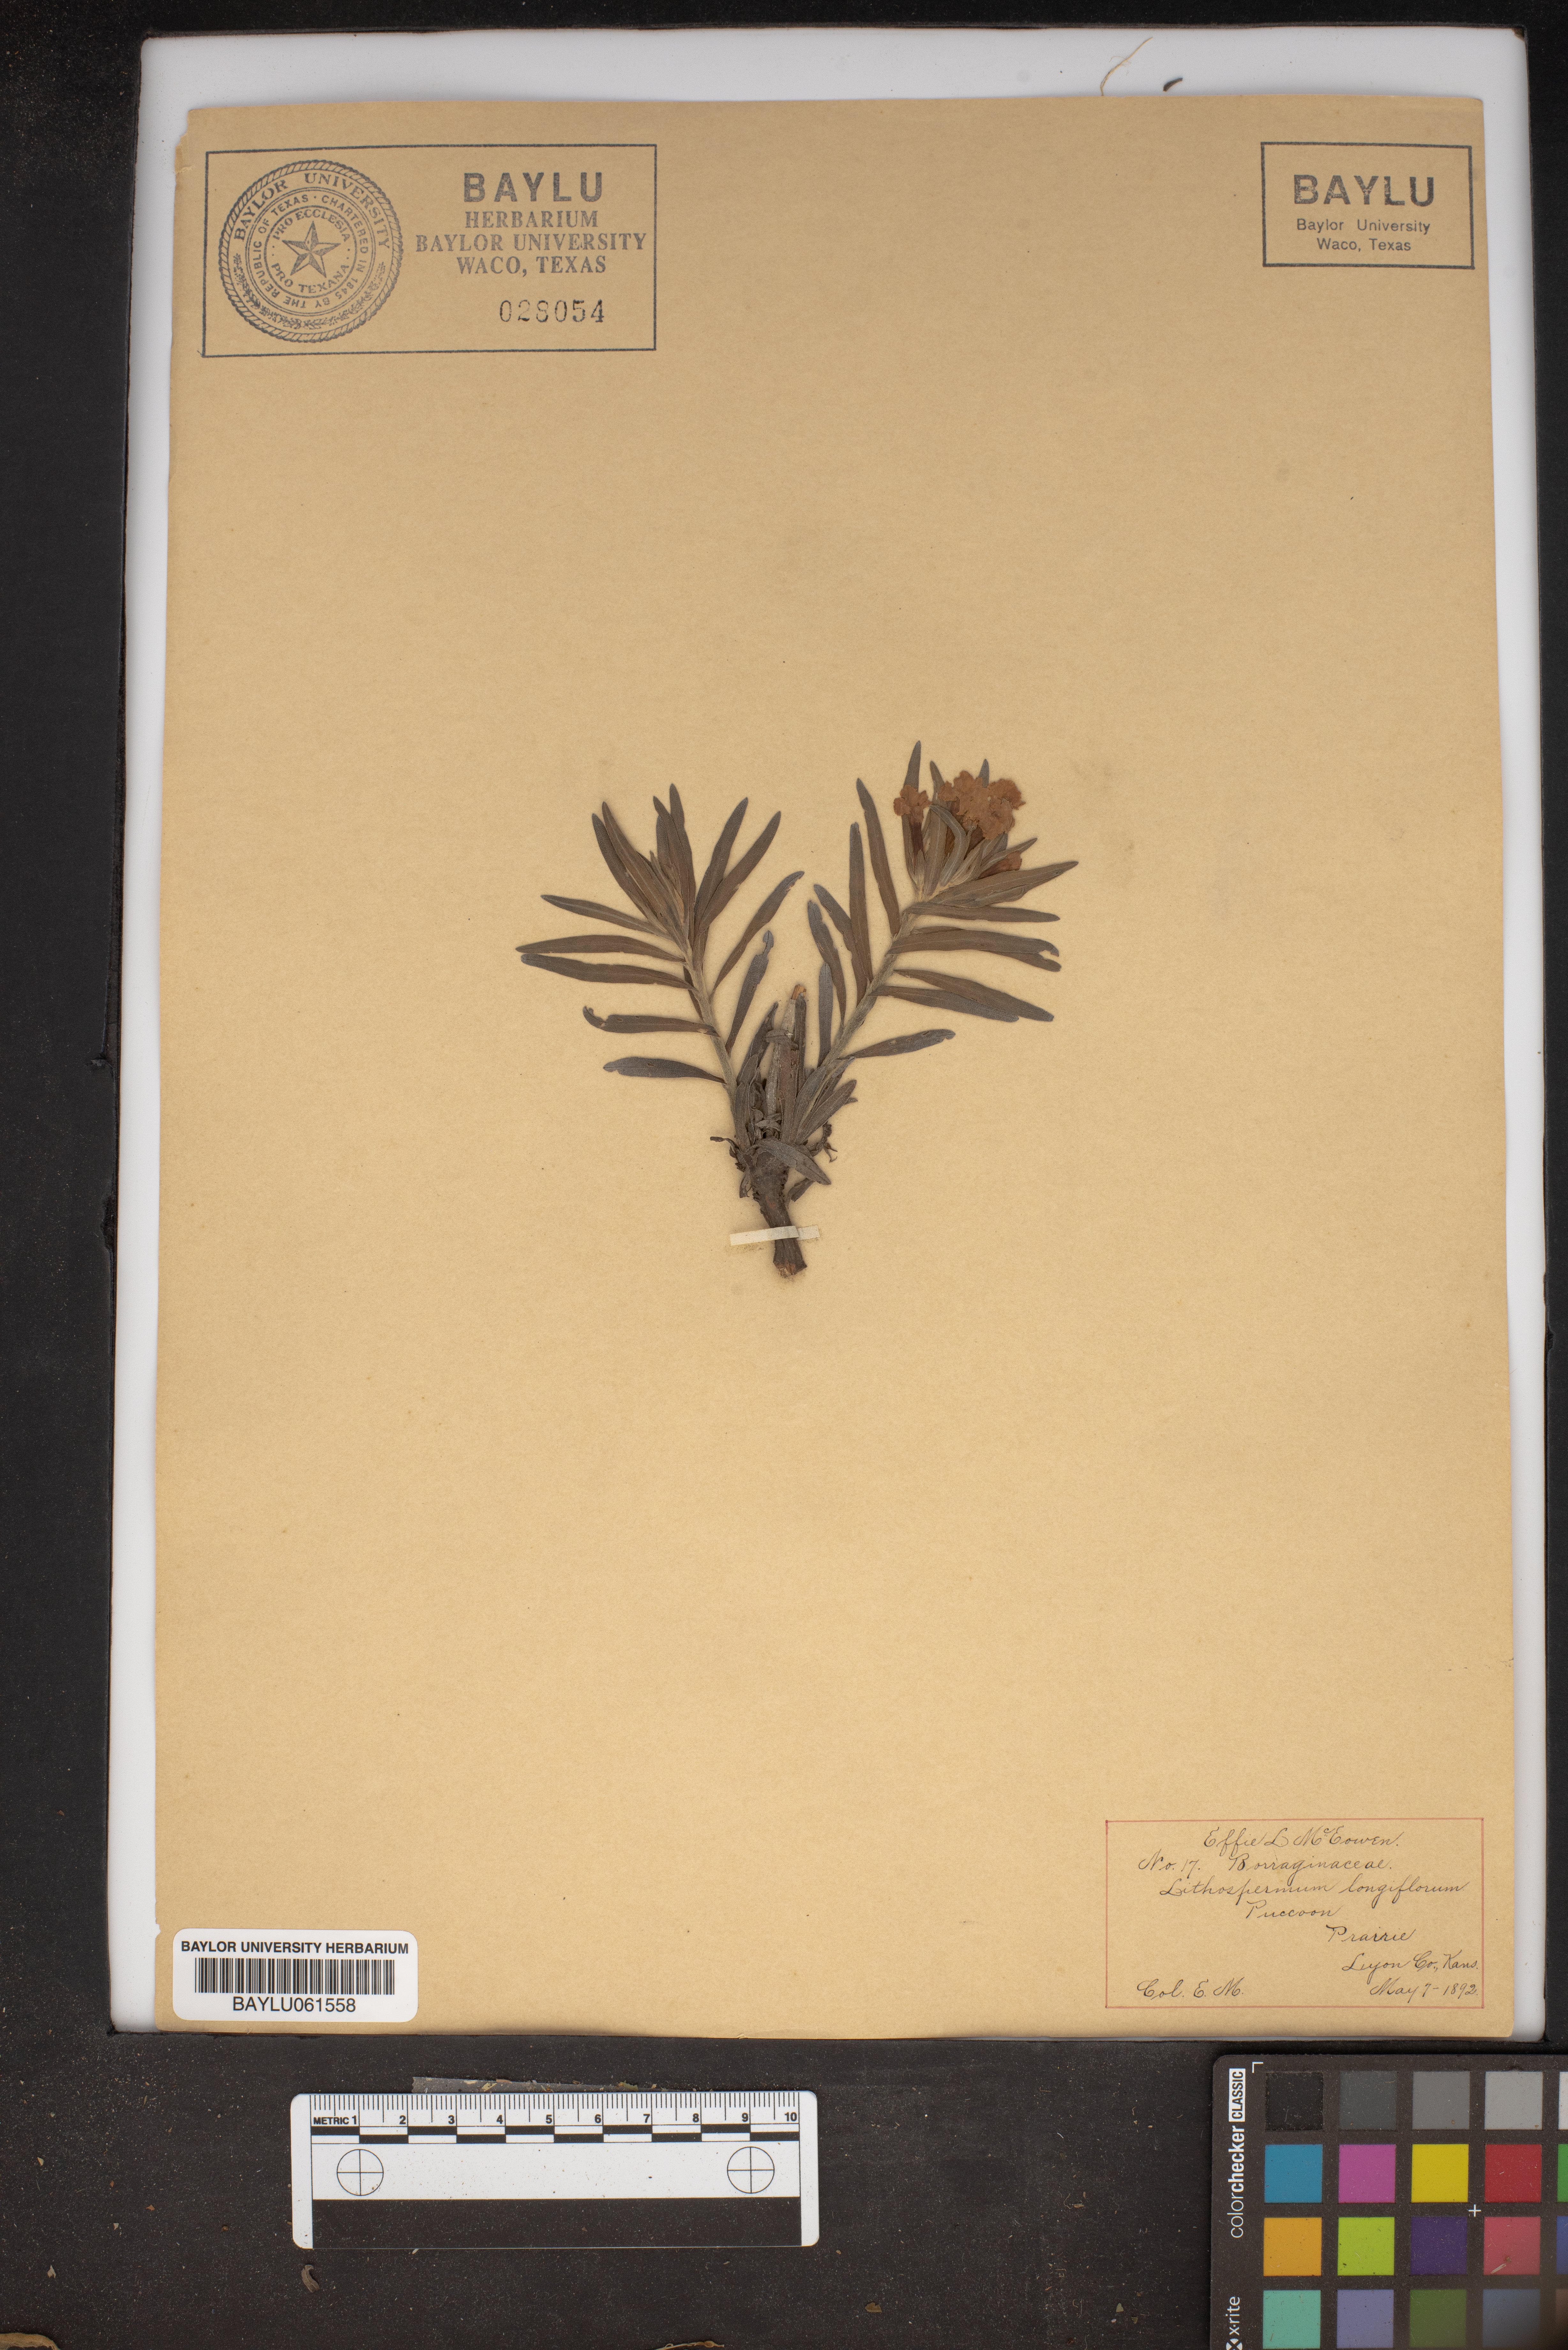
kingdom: Plantae
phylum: Tracheophyta
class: Magnoliopsida
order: Boraginales
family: Boraginaceae
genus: Lithospermum
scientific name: Lithospermum longiflorum
